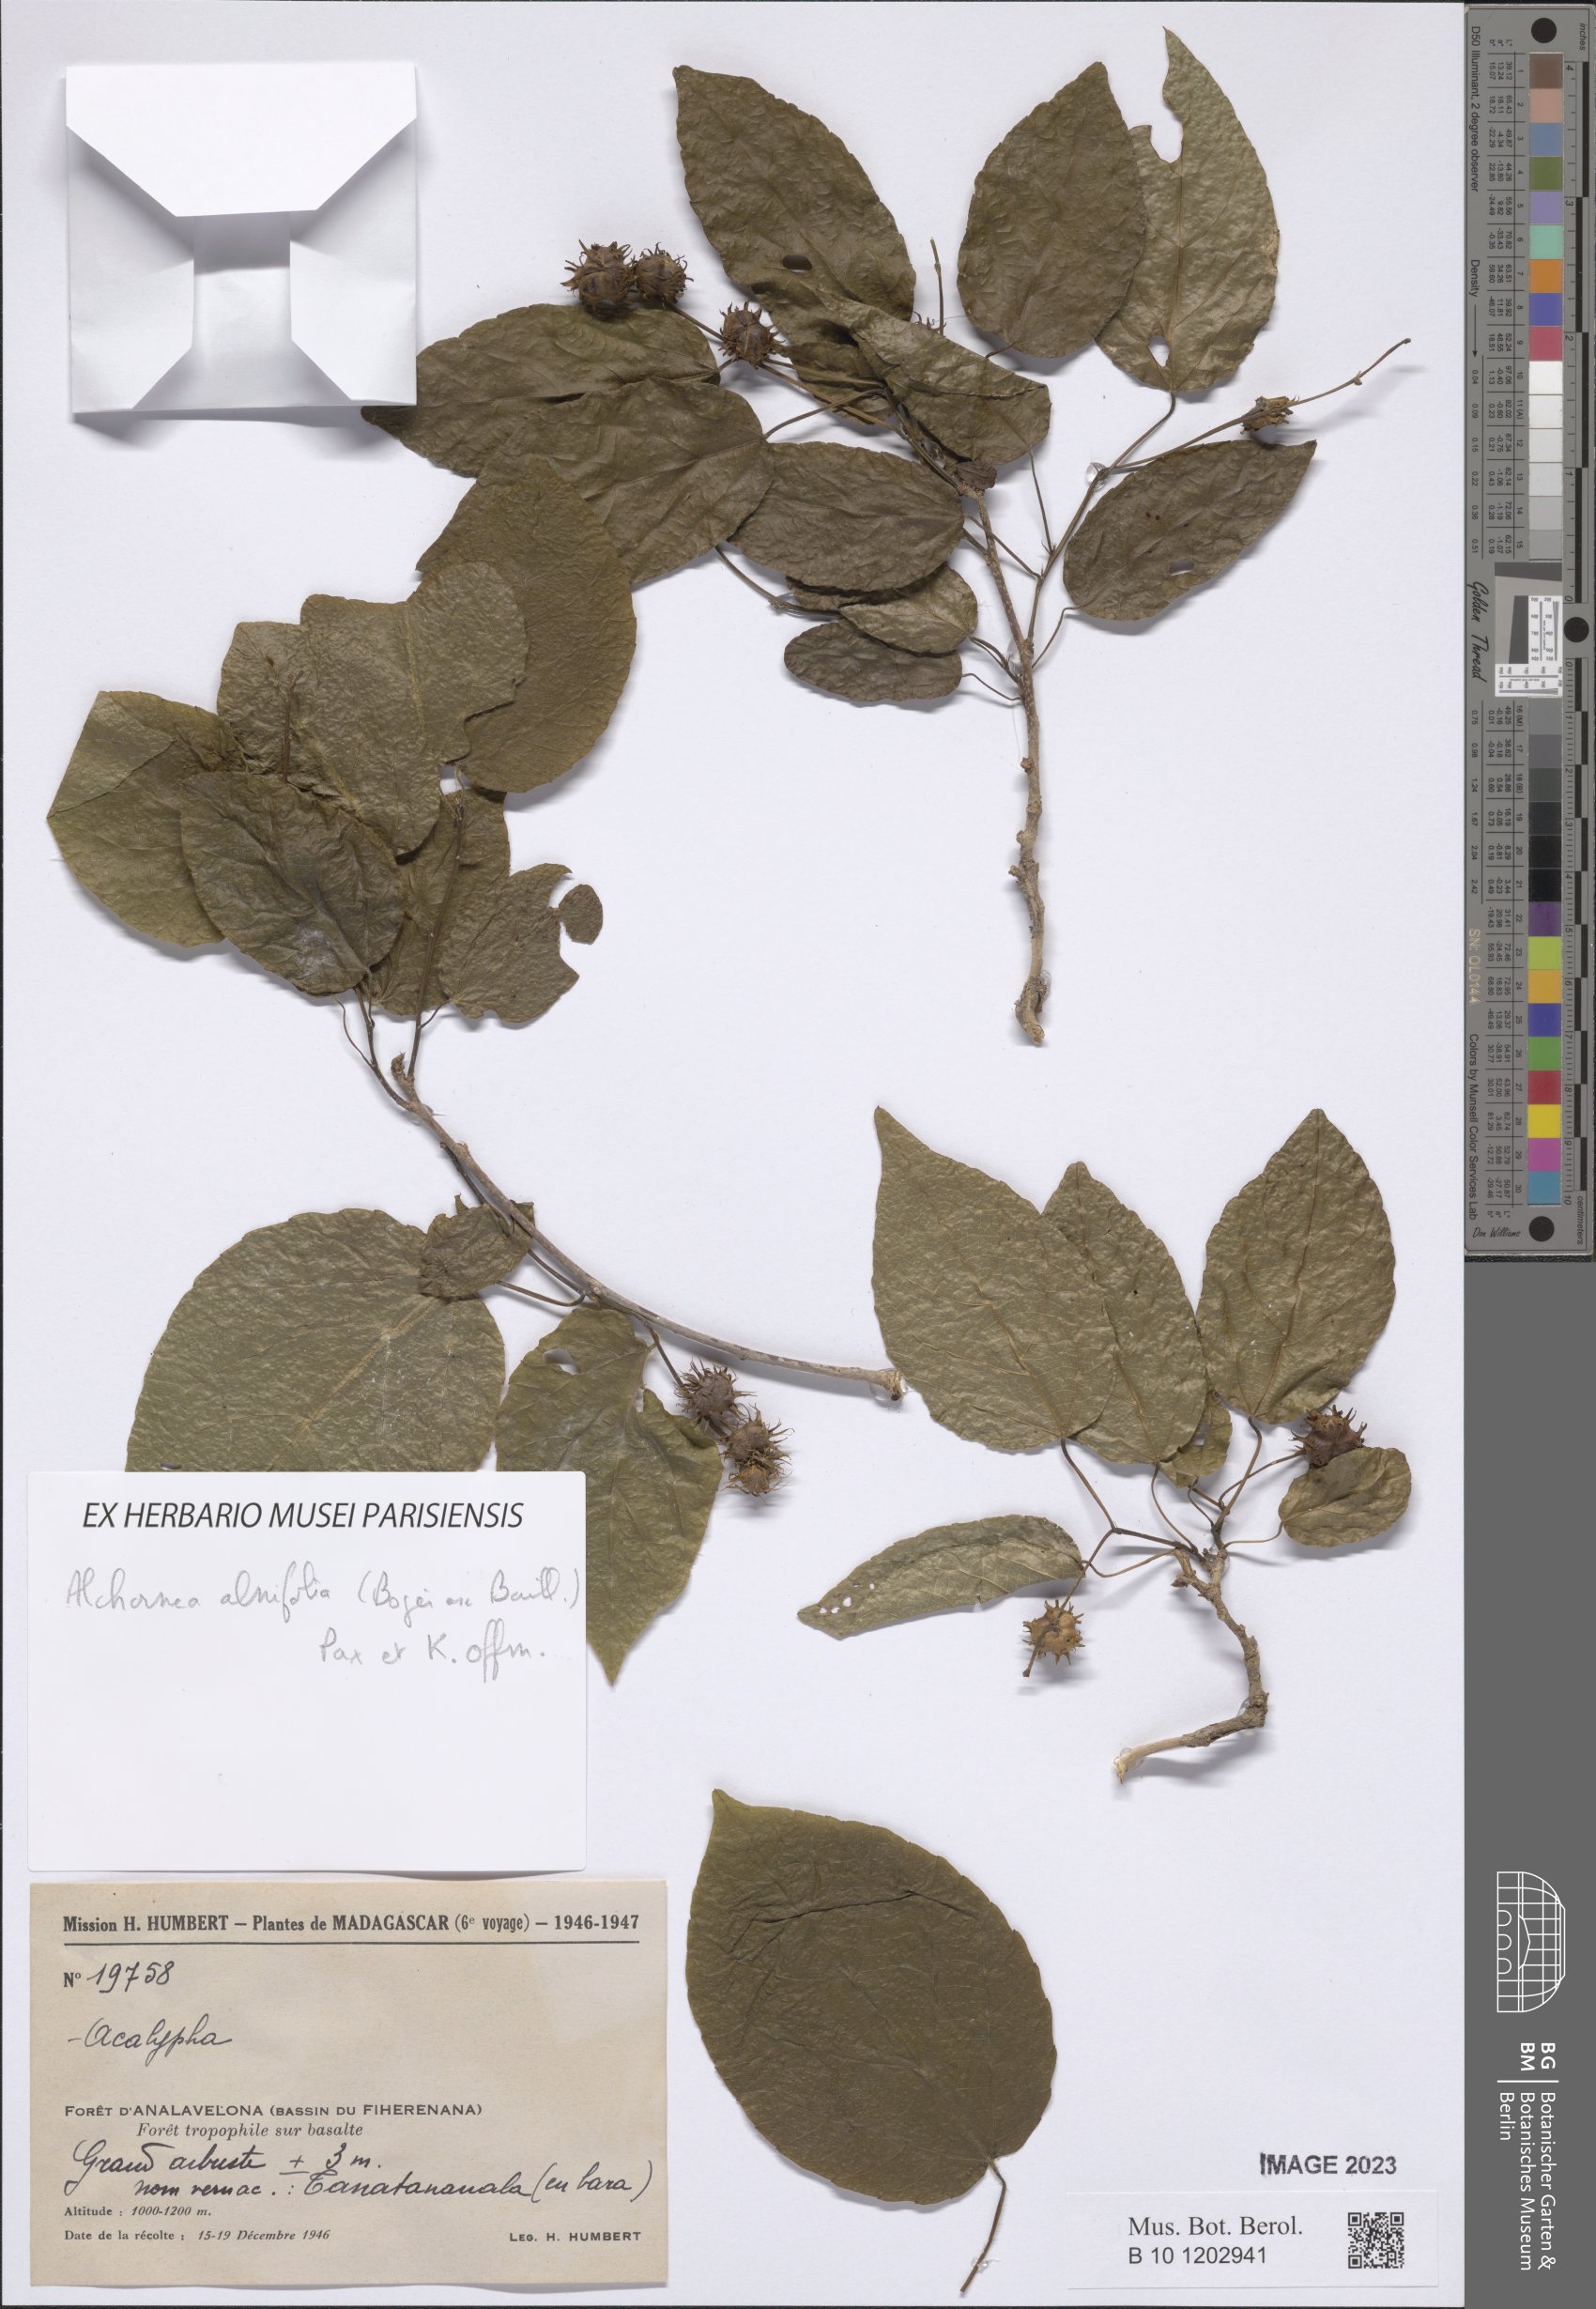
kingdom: Plantae
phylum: Tracheophyta
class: Magnoliopsida
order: Malpighiales
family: Euphorbiaceae
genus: Alchornea
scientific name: Alchornea alnifolia
